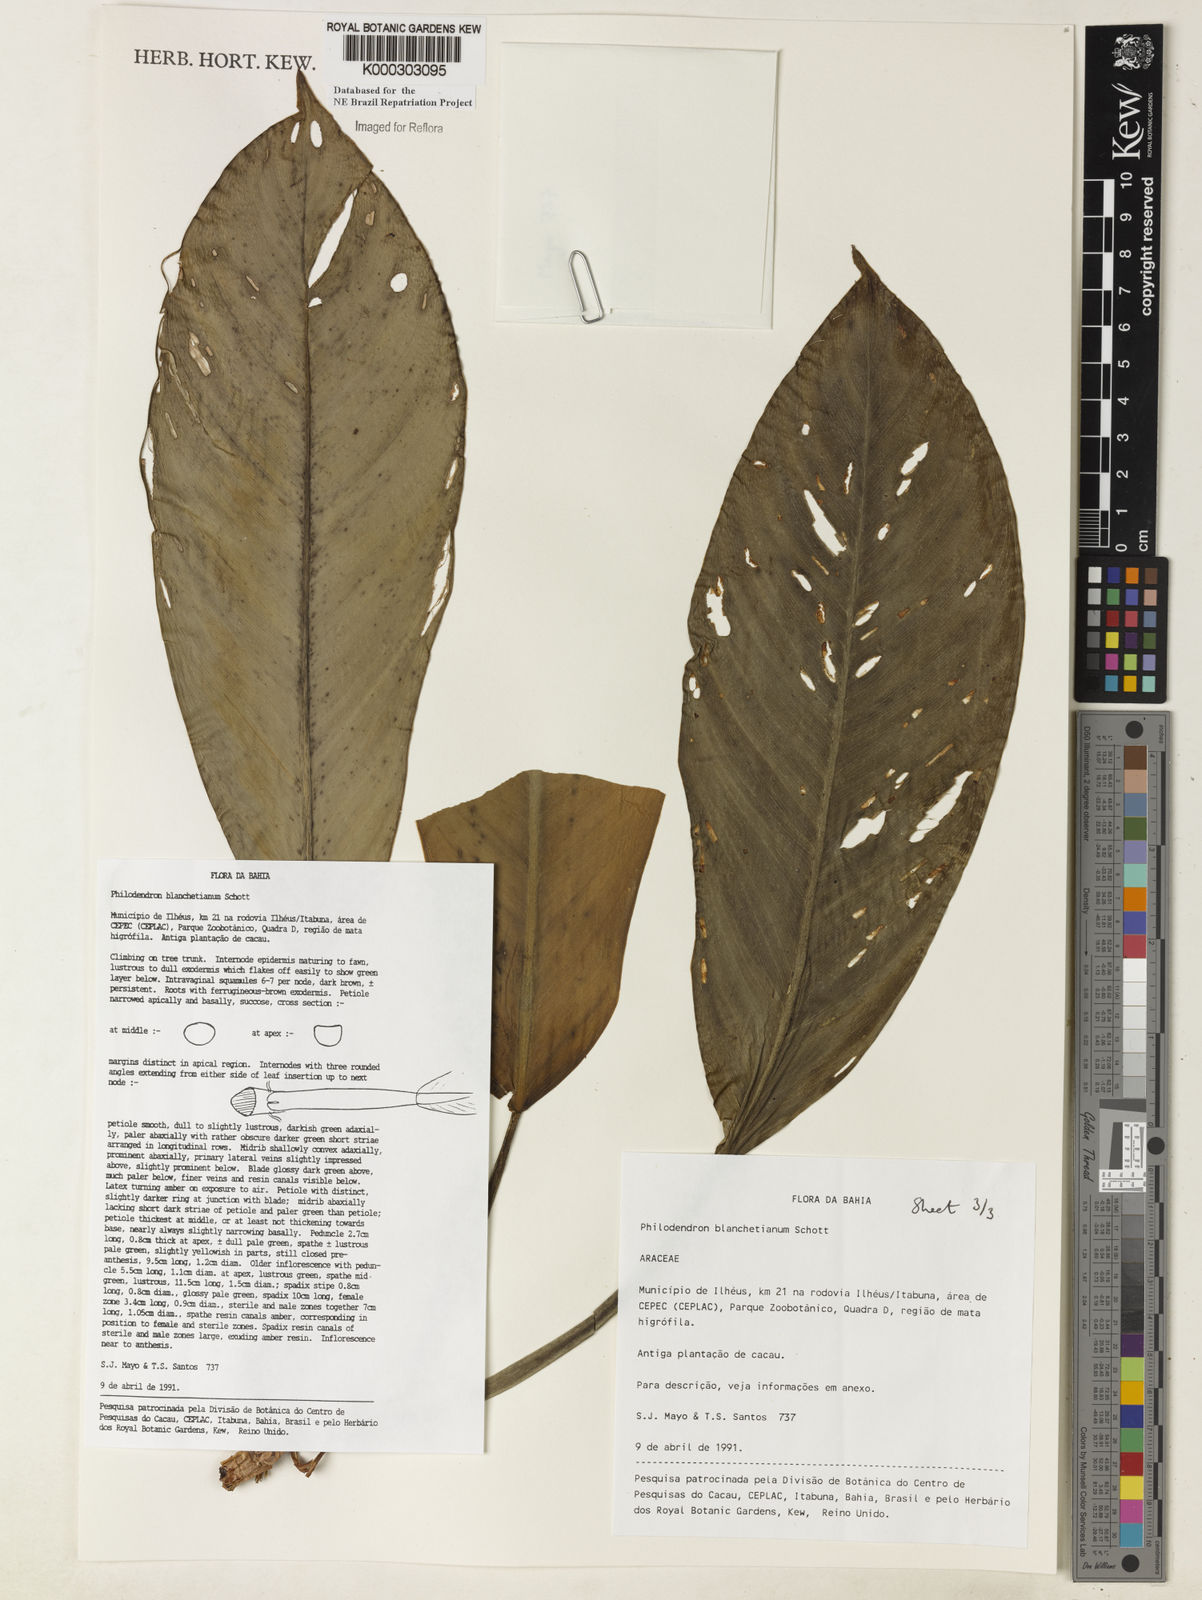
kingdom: Plantae
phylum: Tracheophyta
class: Liliopsida
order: Alismatales
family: Araceae
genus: Philodendron
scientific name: Philodendron blanchetianum
